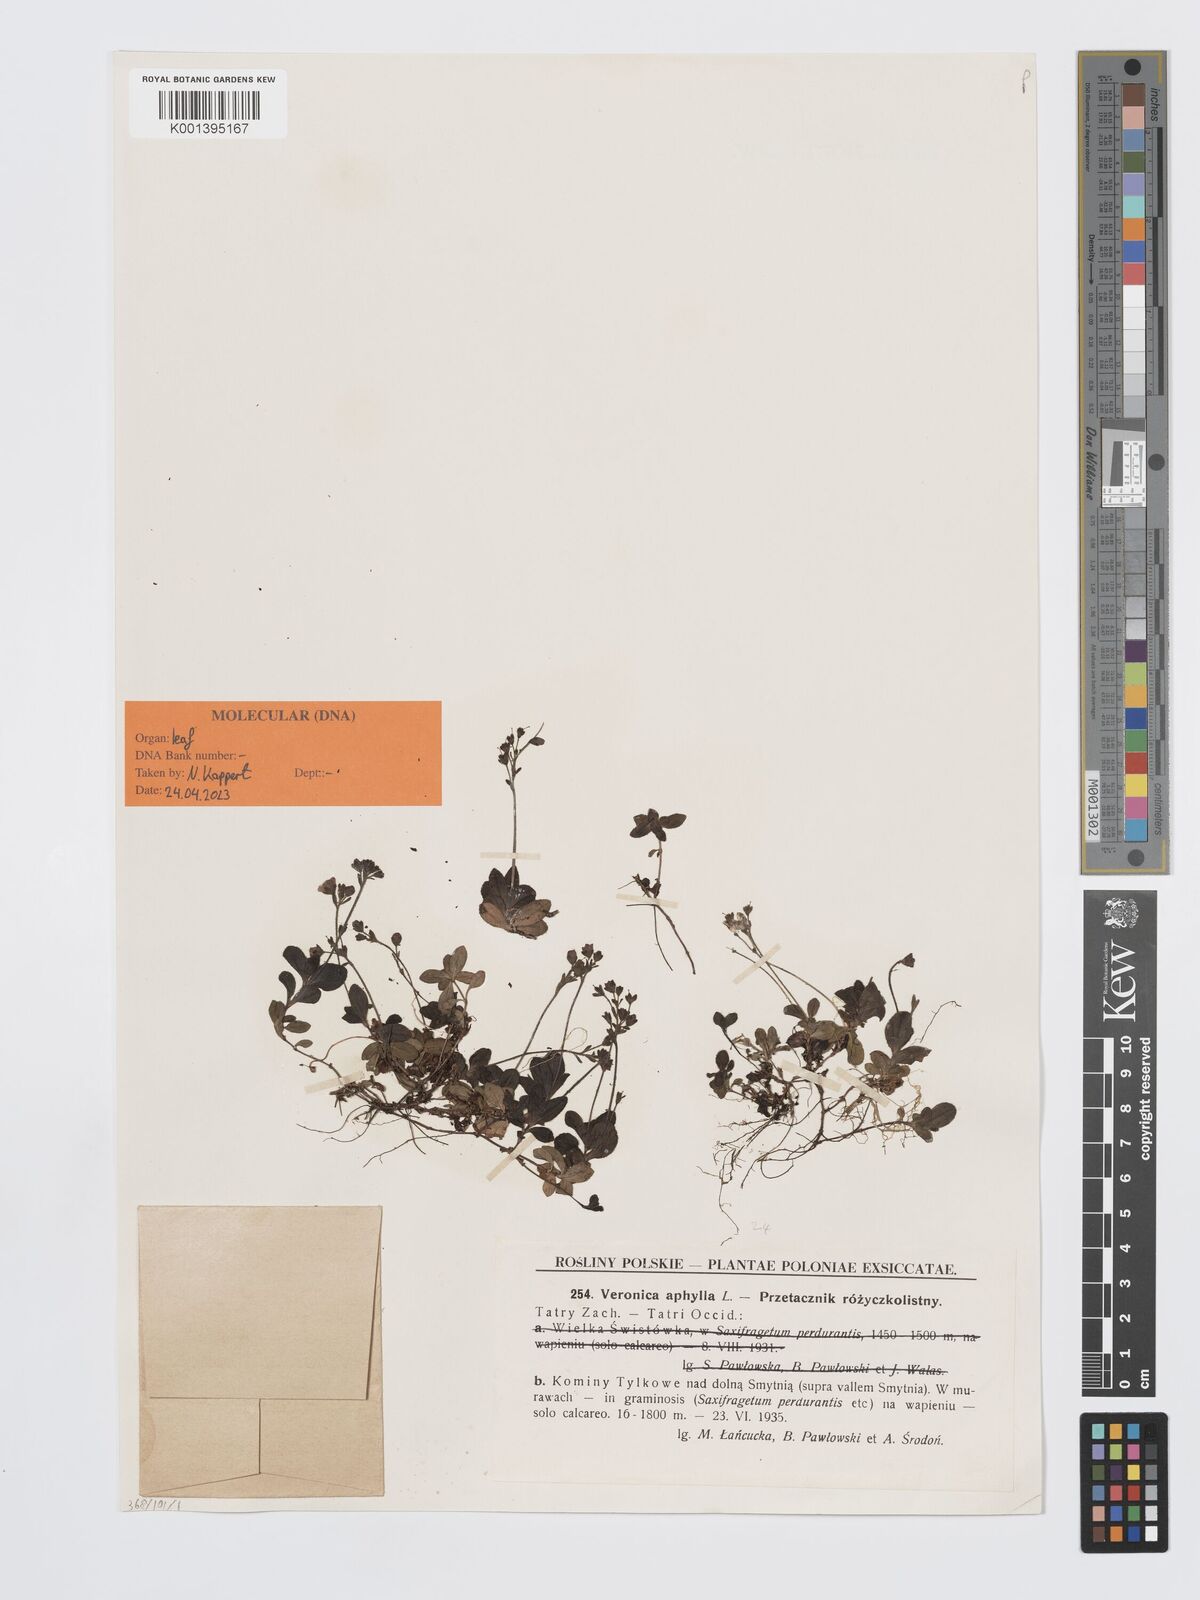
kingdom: Plantae
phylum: Tracheophyta
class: Magnoliopsida
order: Lamiales
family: Plantaginaceae
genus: Veronica
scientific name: Veronica aphylla
